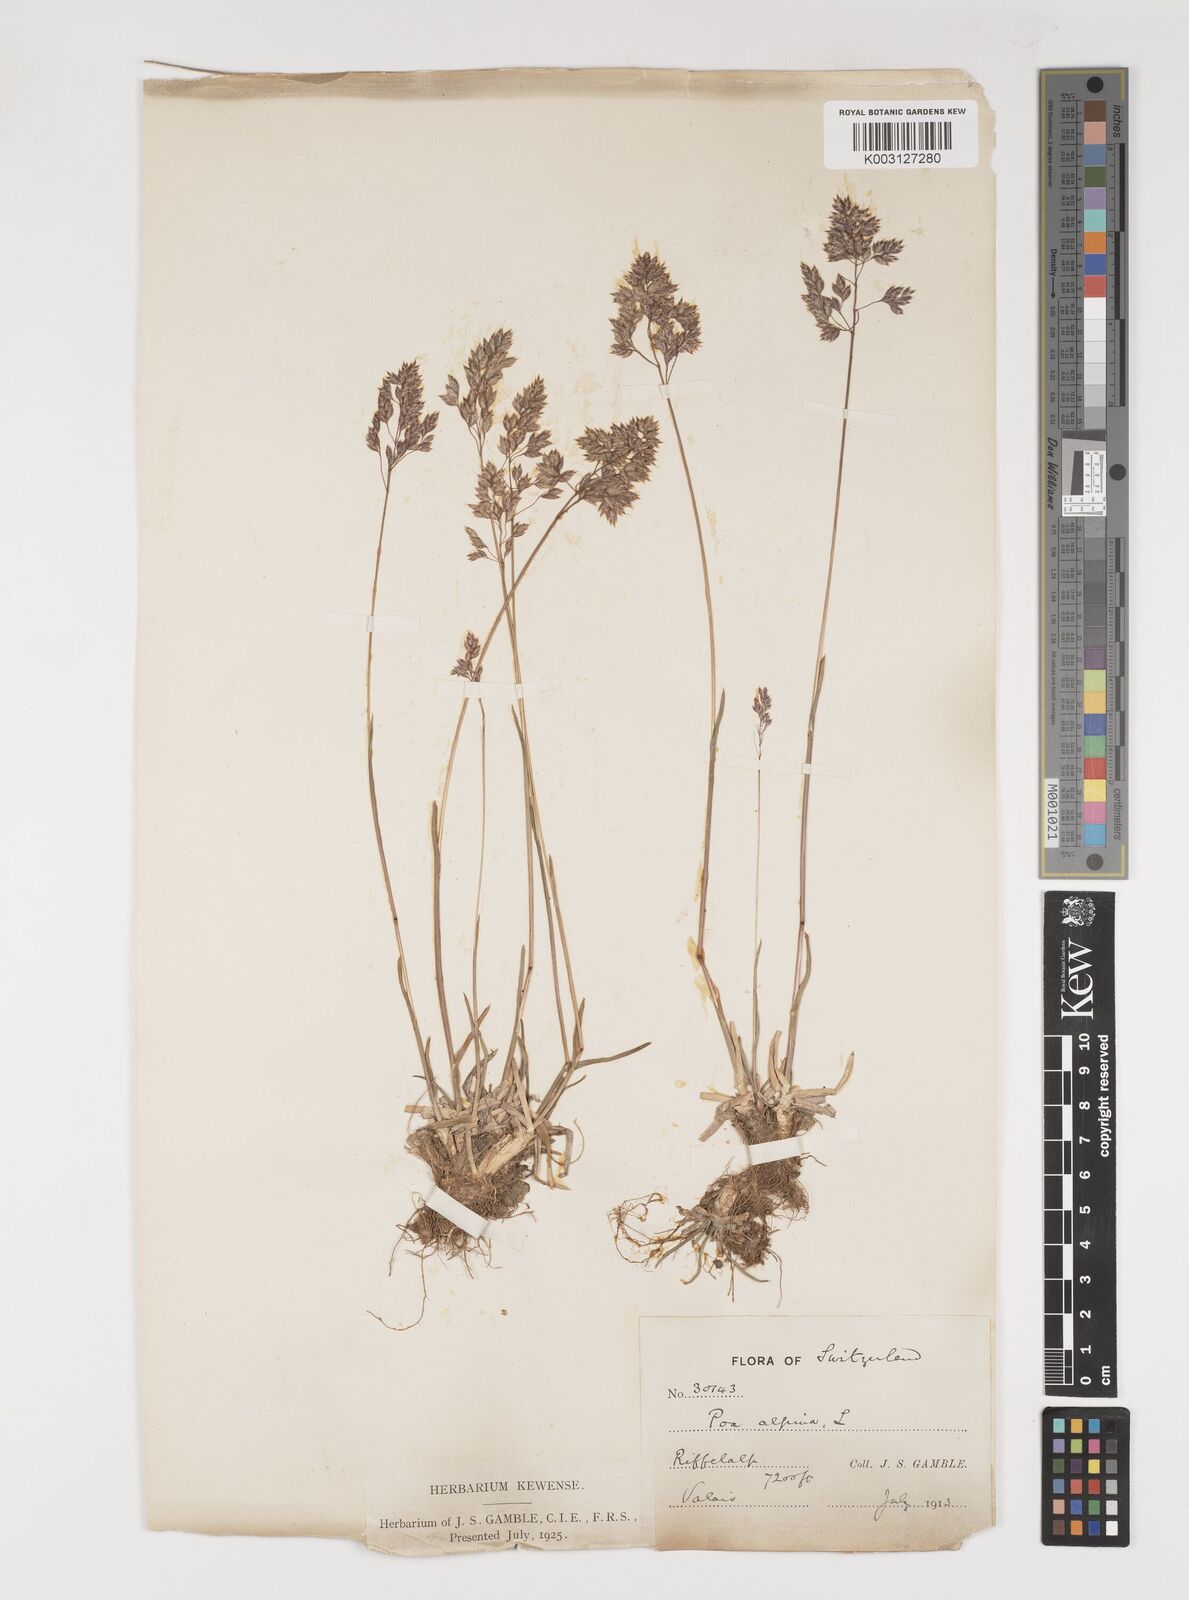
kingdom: Plantae
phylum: Tracheophyta
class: Liliopsida
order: Poales
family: Poaceae
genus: Poa
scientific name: Poa alpina
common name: Alpine bluegrass
